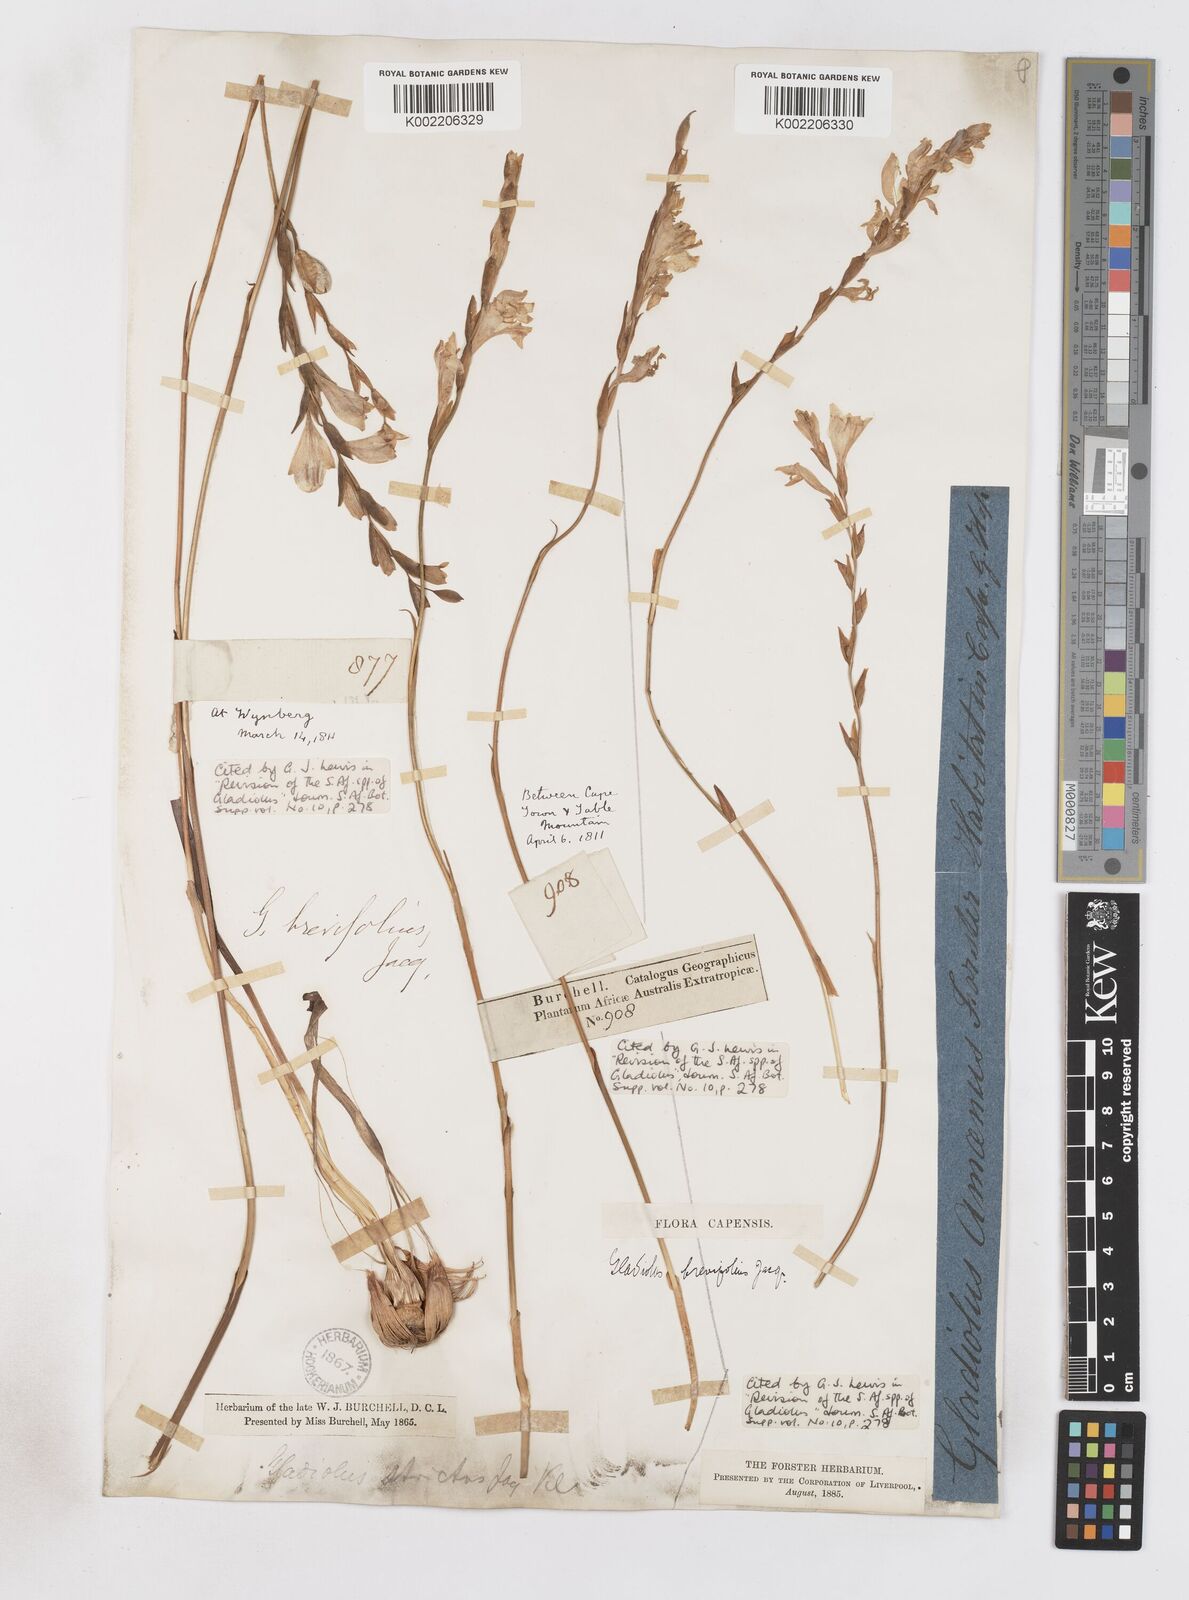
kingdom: Plantae
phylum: Tracheophyta
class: Liliopsida
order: Asparagales
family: Iridaceae
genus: Gladiolus
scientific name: Gladiolus brevifolius
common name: March pypie
